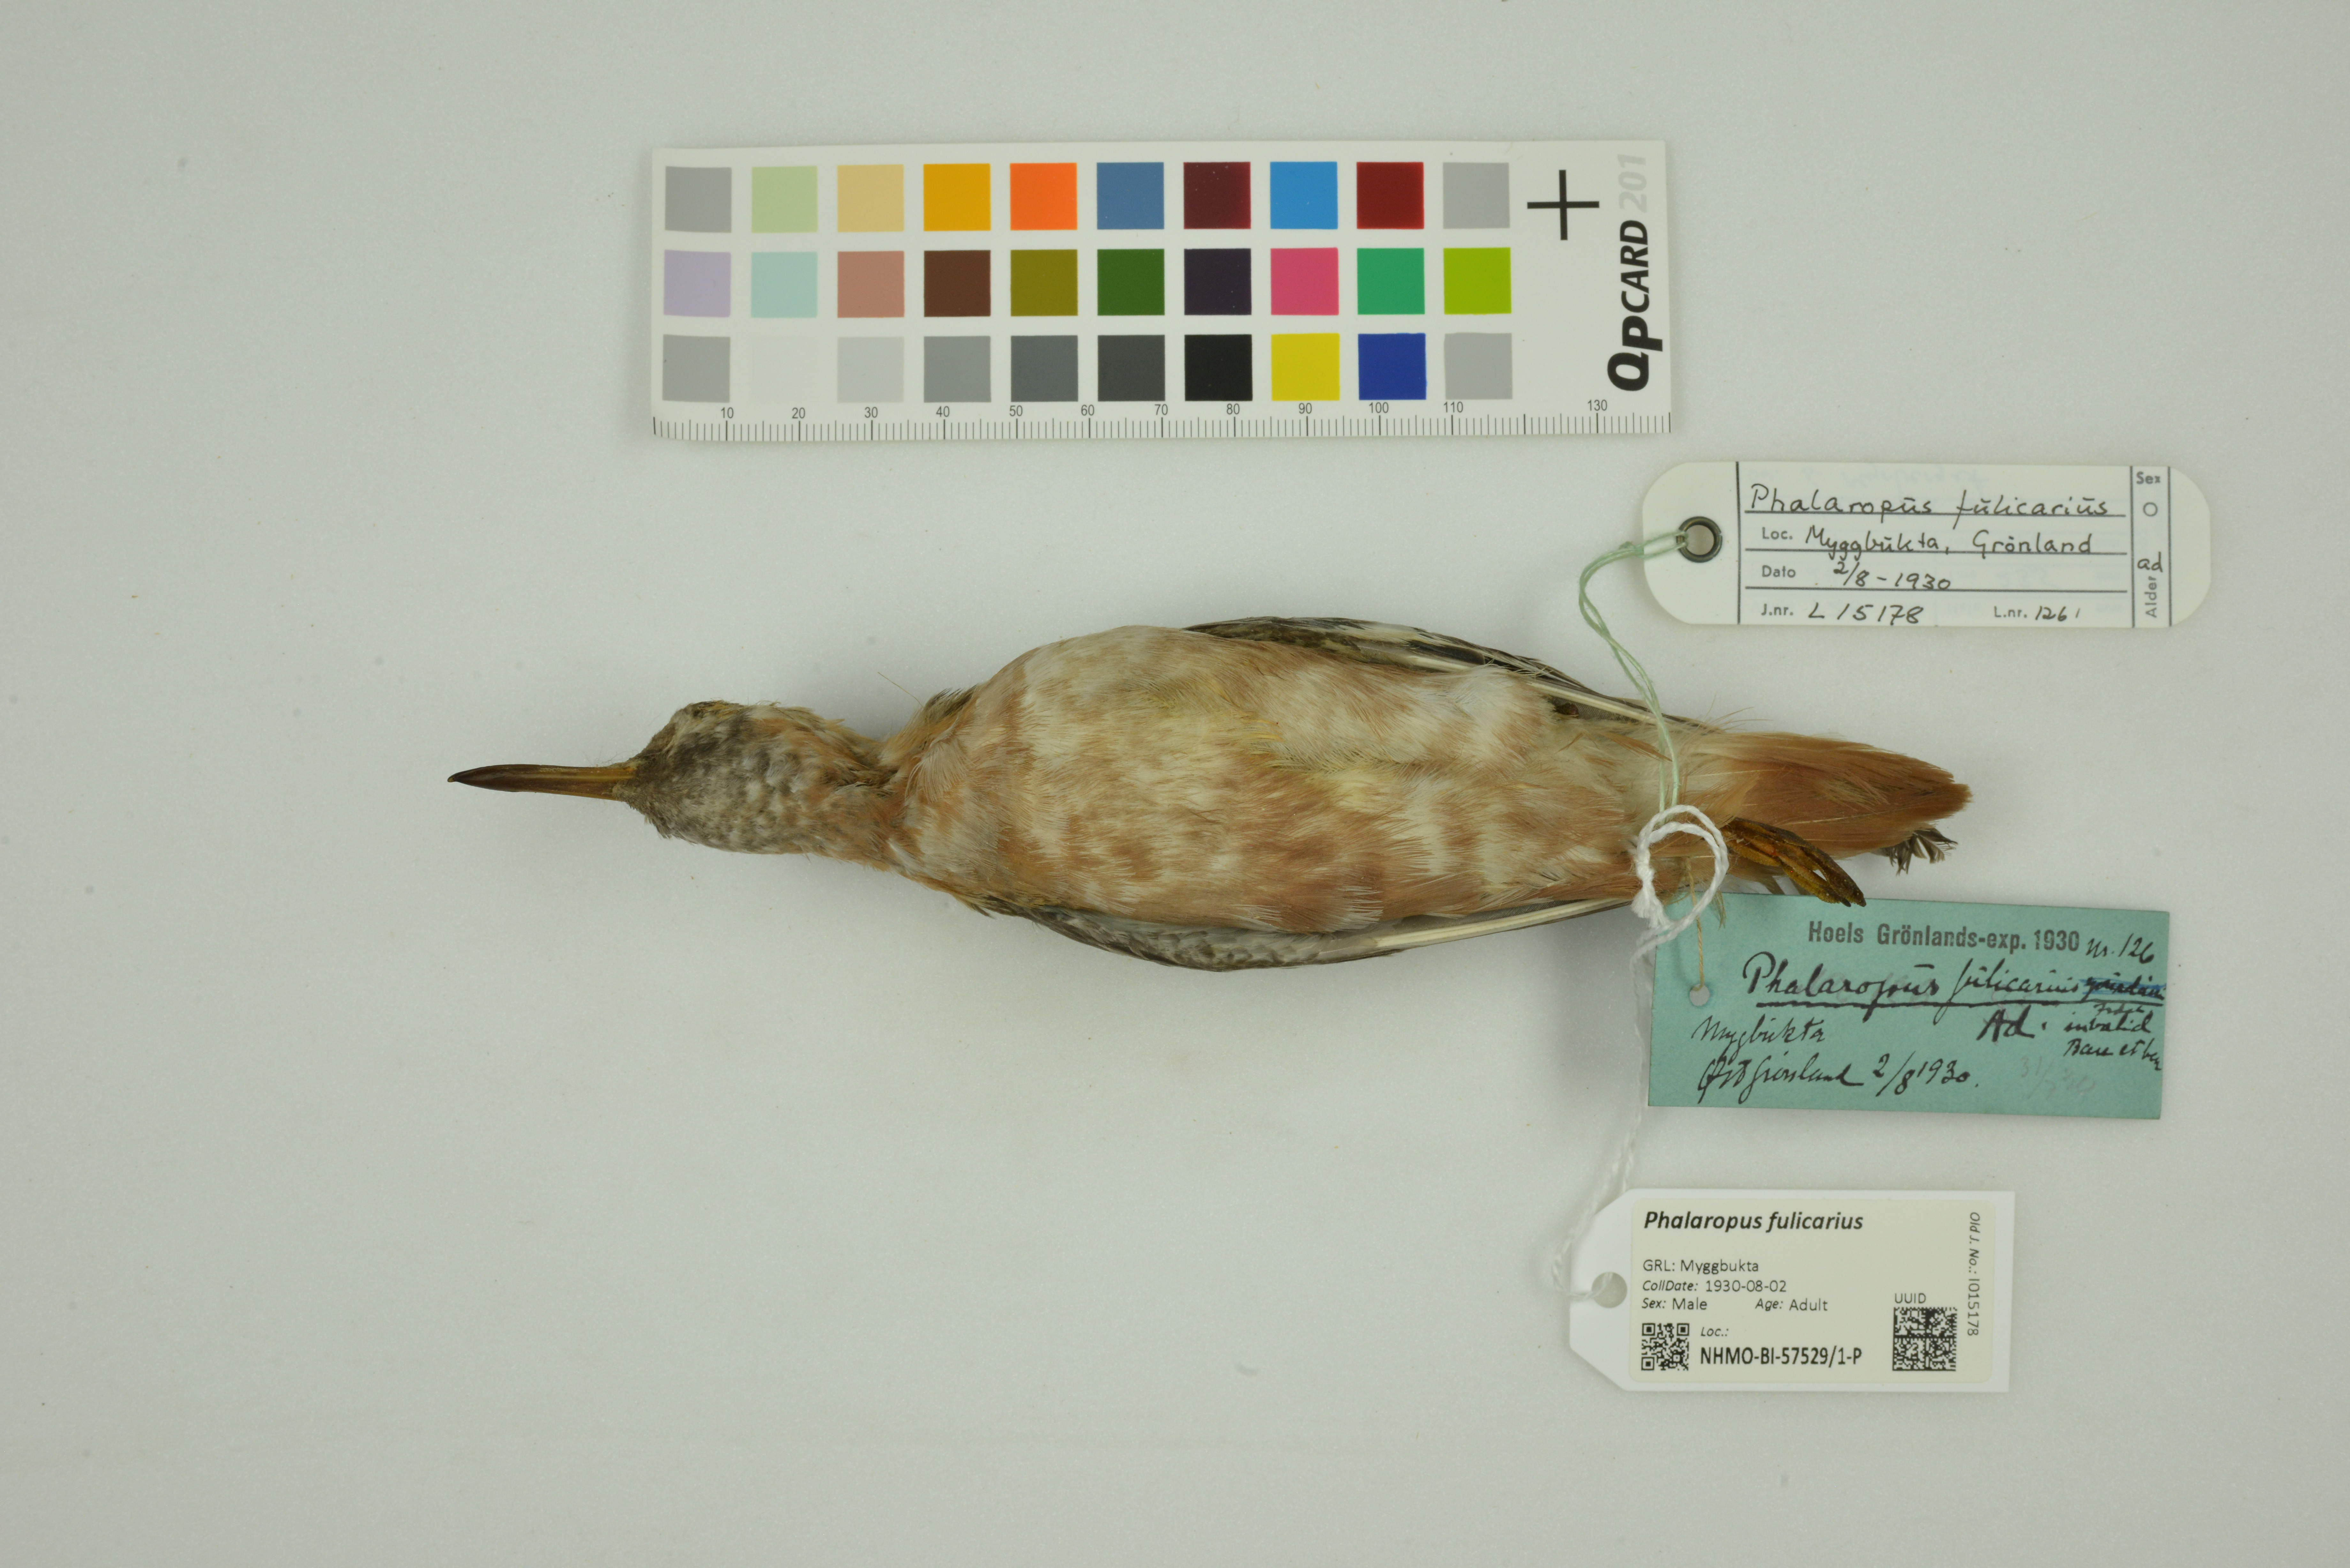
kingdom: Animalia
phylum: Chordata
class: Aves
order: Charadriiformes
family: Scolopacidae
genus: Phalaropus
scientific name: Phalaropus fulicarius
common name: Red phalarope
